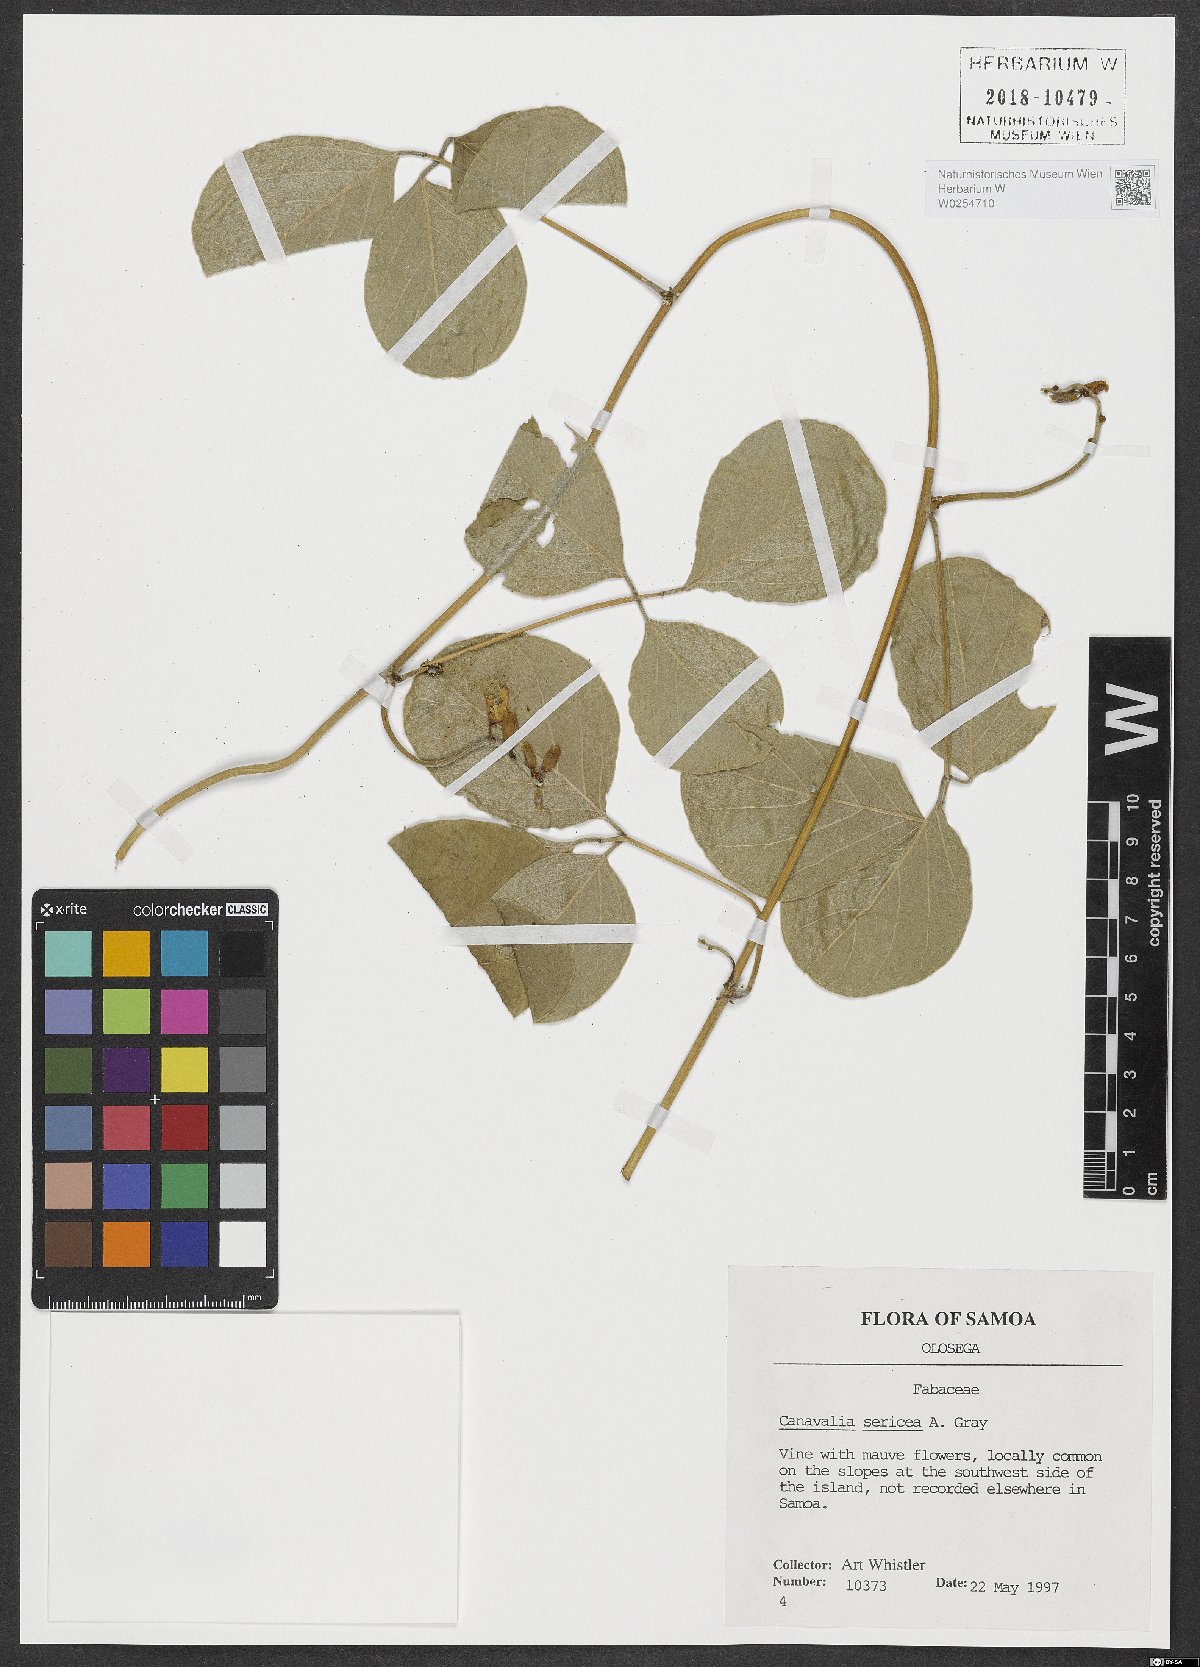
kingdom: Plantae
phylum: Tracheophyta
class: Magnoliopsida
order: Fabales
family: Fabaceae
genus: Canavalia
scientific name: Canavalia sericea
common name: Silky jackbean
